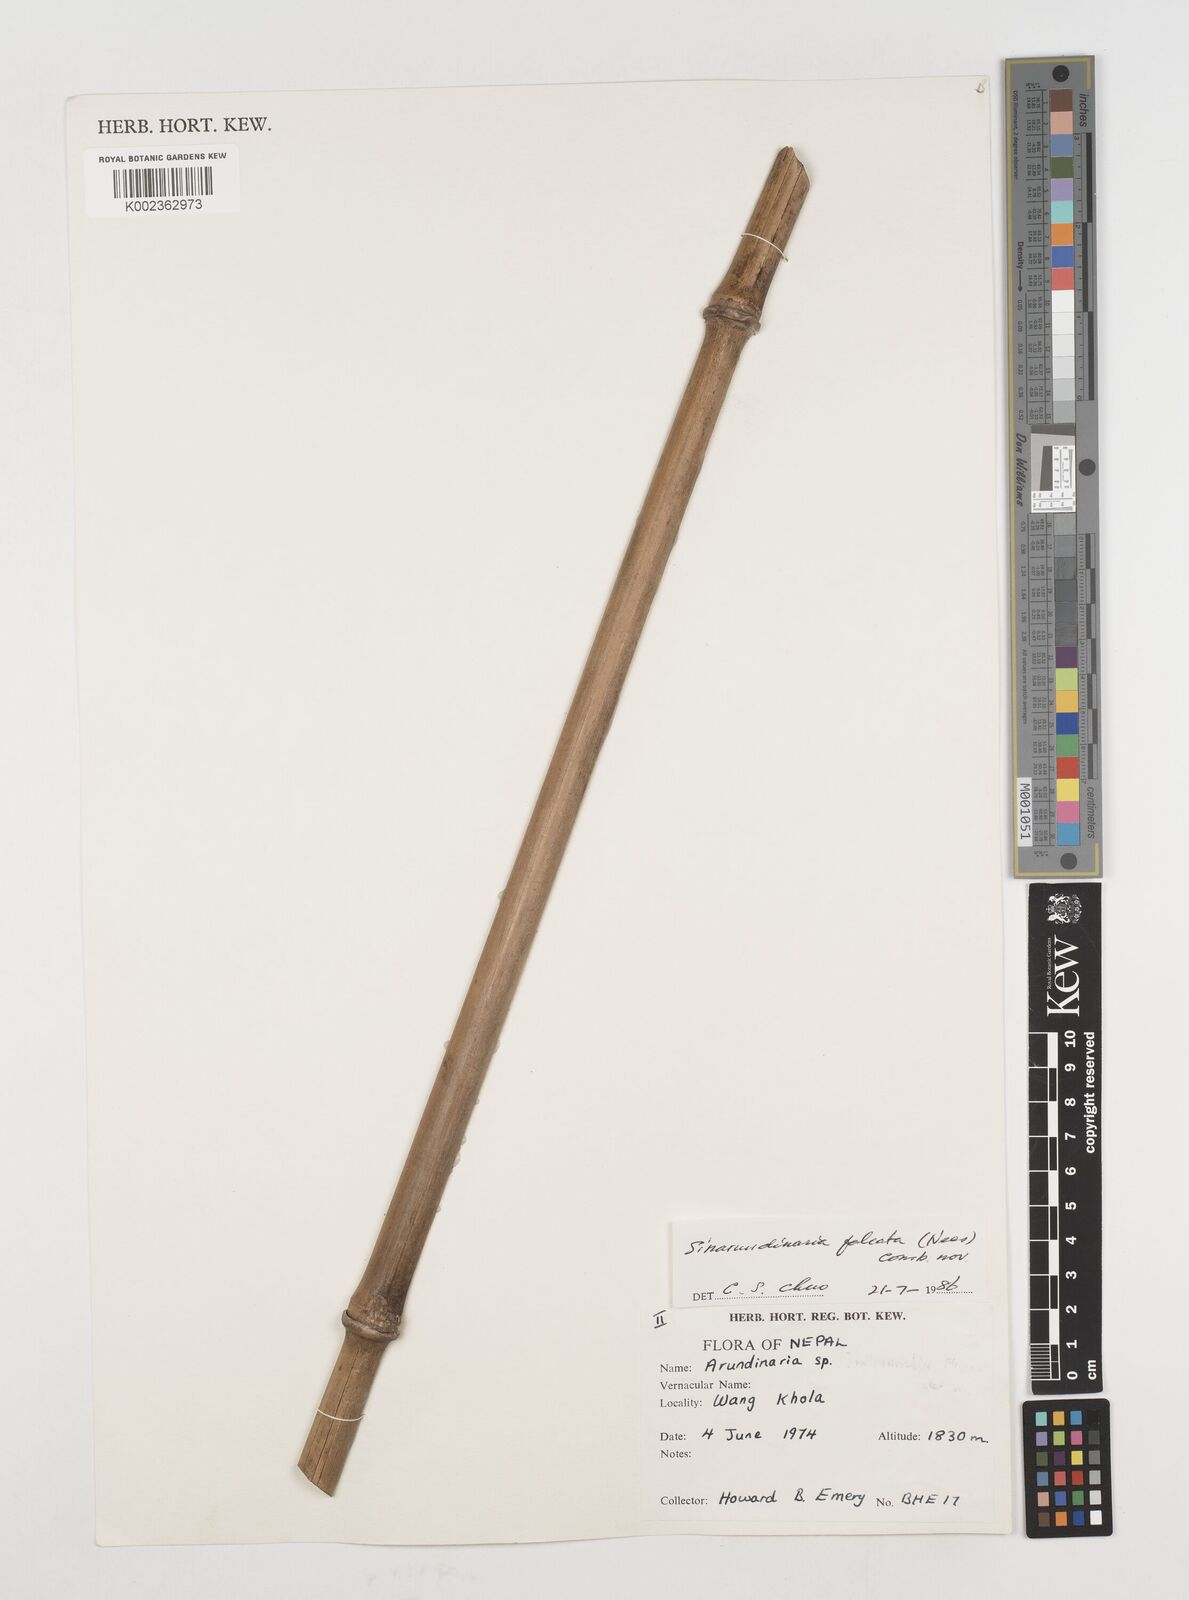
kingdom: Plantae
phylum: Tracheophyta
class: Liliopsida
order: Poales
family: Poaceae
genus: Drepanostachyum
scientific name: Drepanostachyum intermedium
